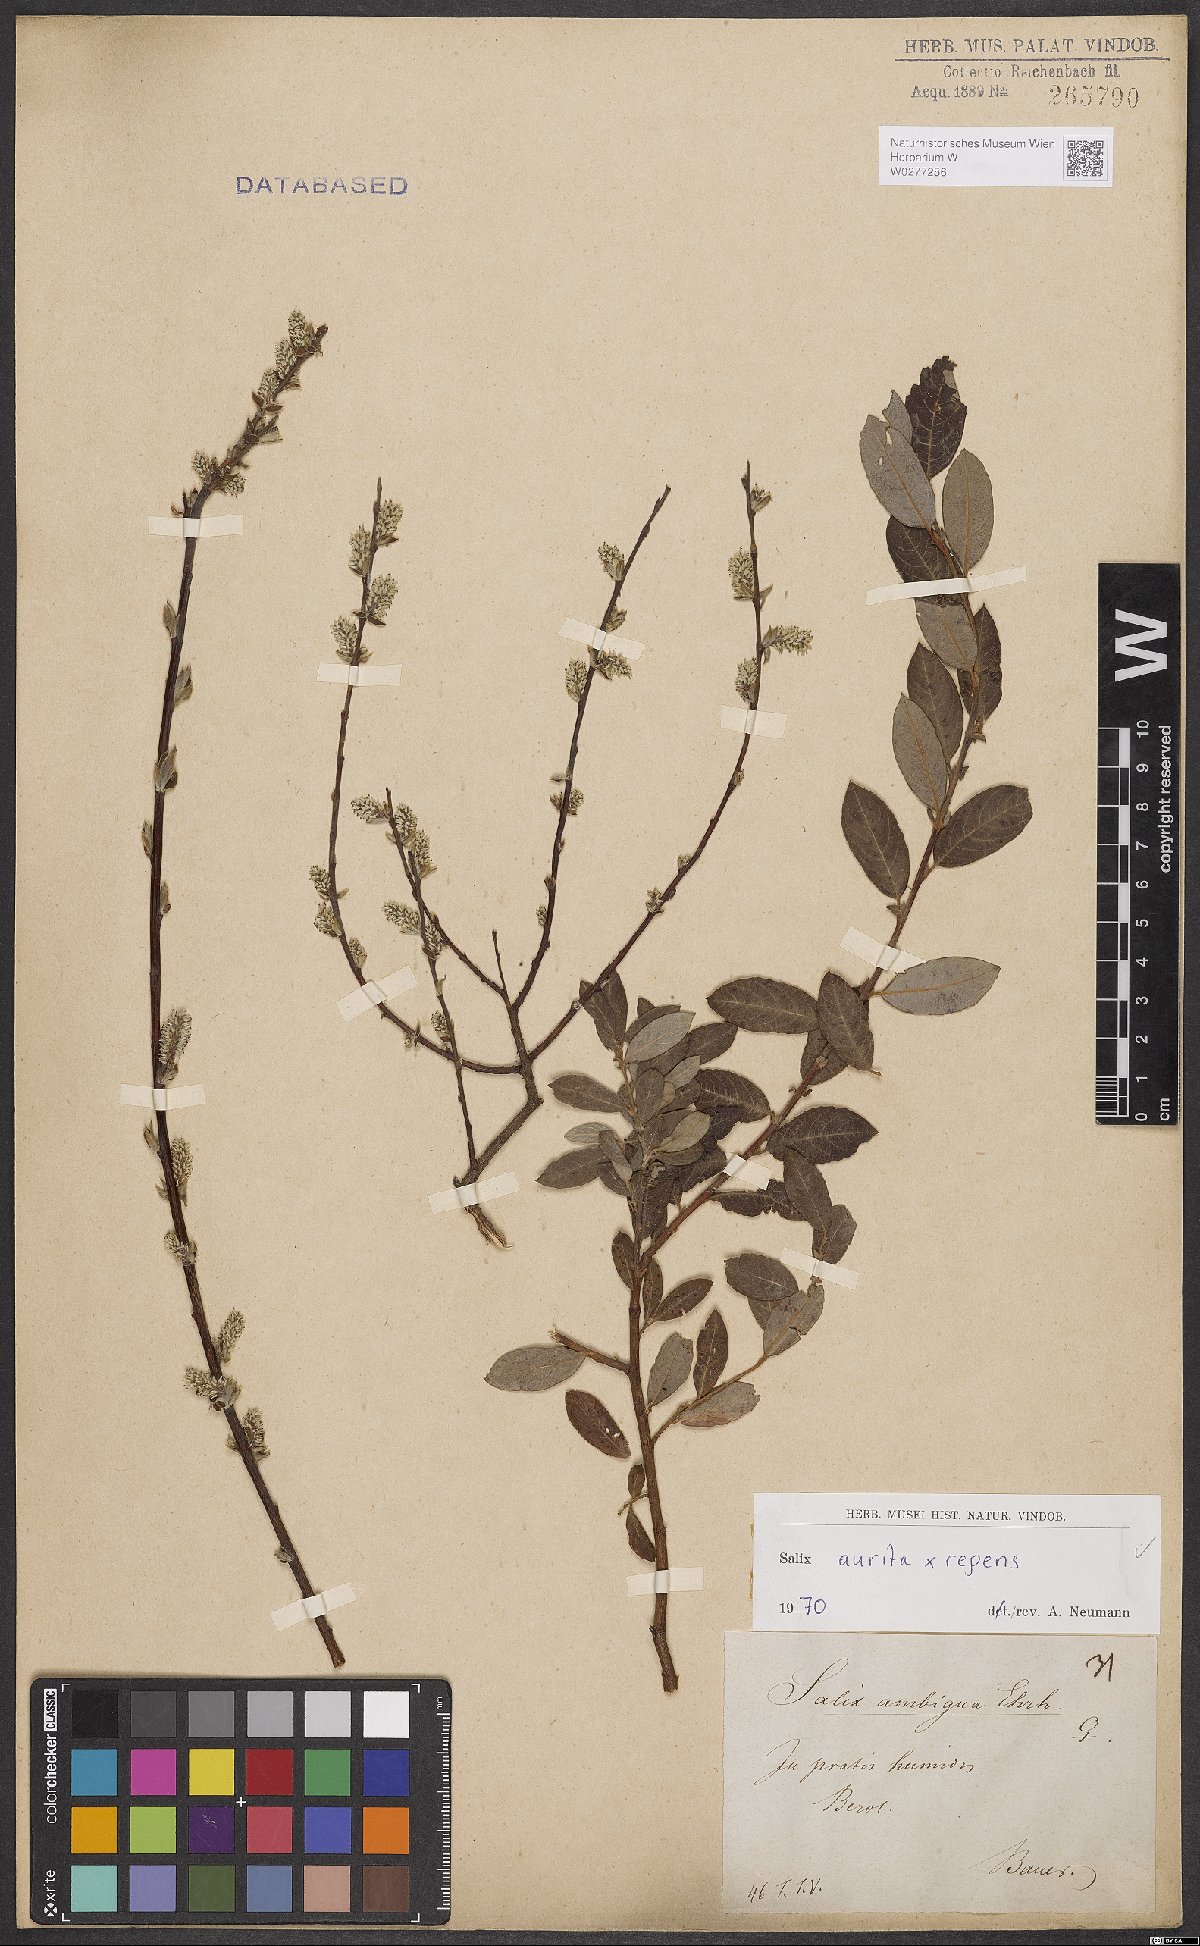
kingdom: Plantae
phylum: Tracheophyta
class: Magnoliopsida
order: Malpighiales
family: Salicaceae
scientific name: Salicaceae
